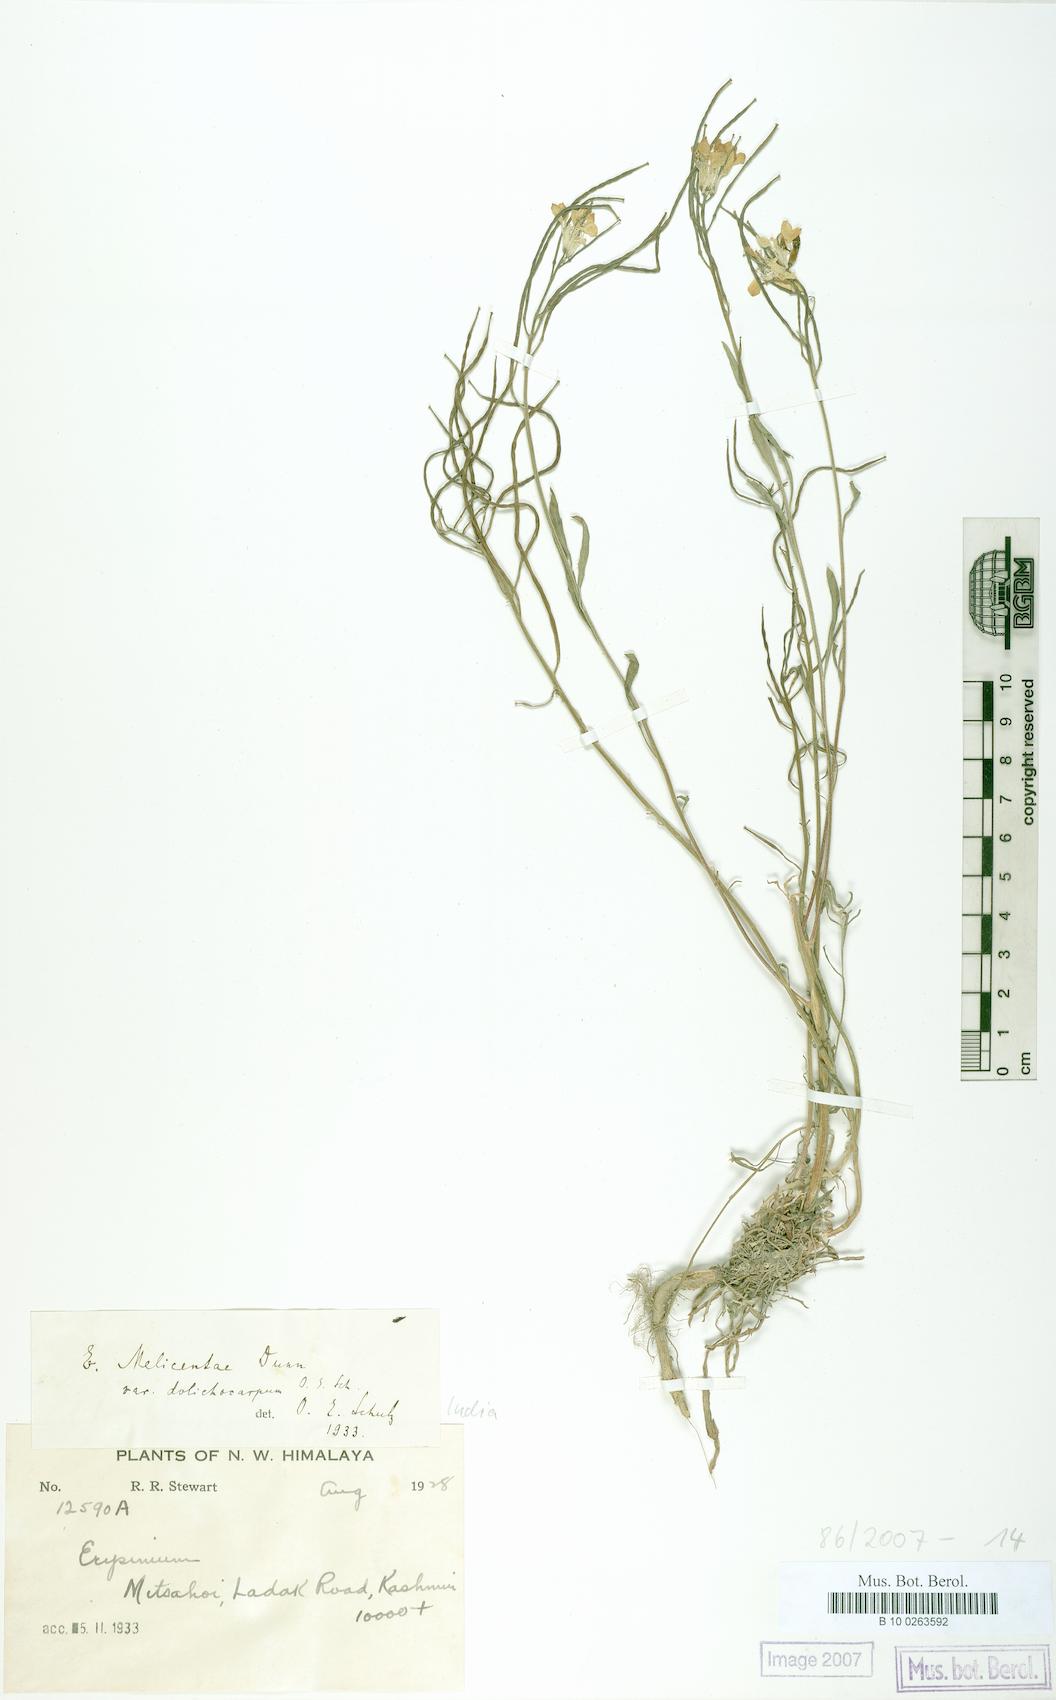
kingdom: Plantae
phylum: Tracheophyta
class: Magnoliopsida
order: Brassicales
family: Brassicaceae
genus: Erysimum
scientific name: Erysimum melicentae
